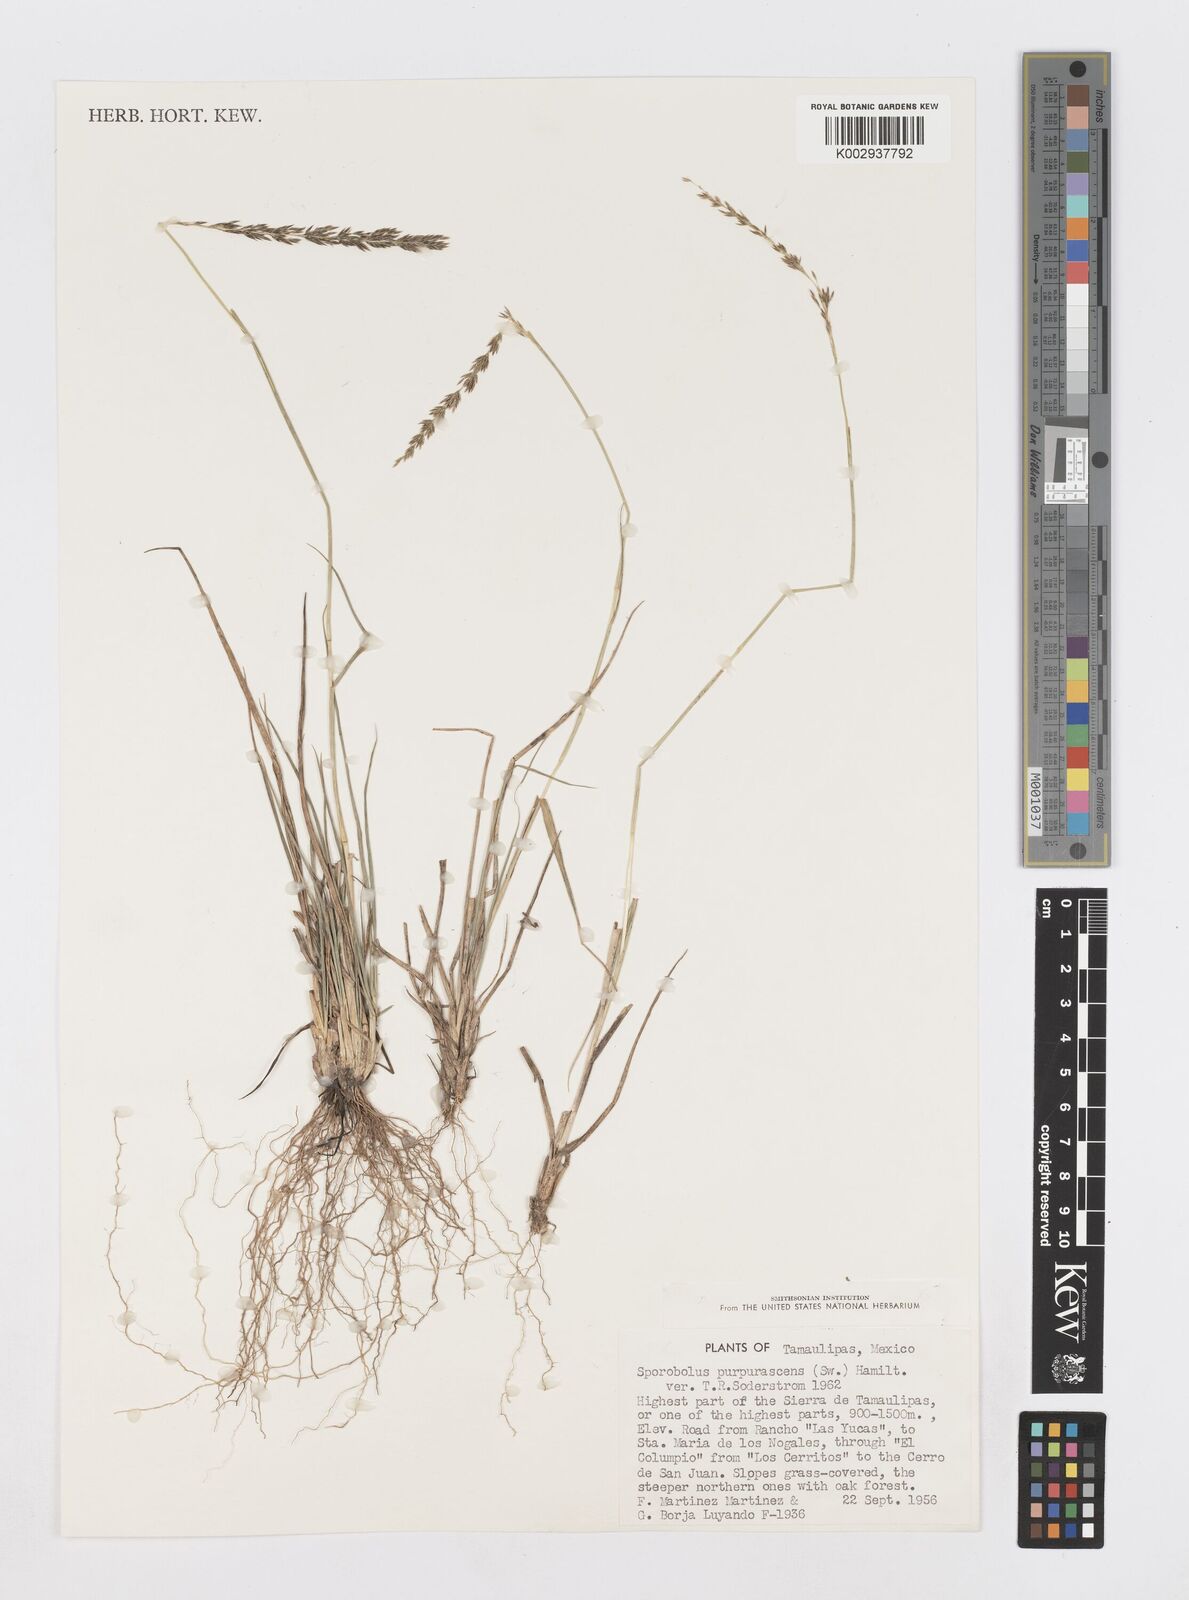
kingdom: Plantae
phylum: Tracheophyta
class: Liliopsida
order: Poales
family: Poaceae
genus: Sporobolus
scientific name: Sporobolus purpurascens
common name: Purple dropseed
